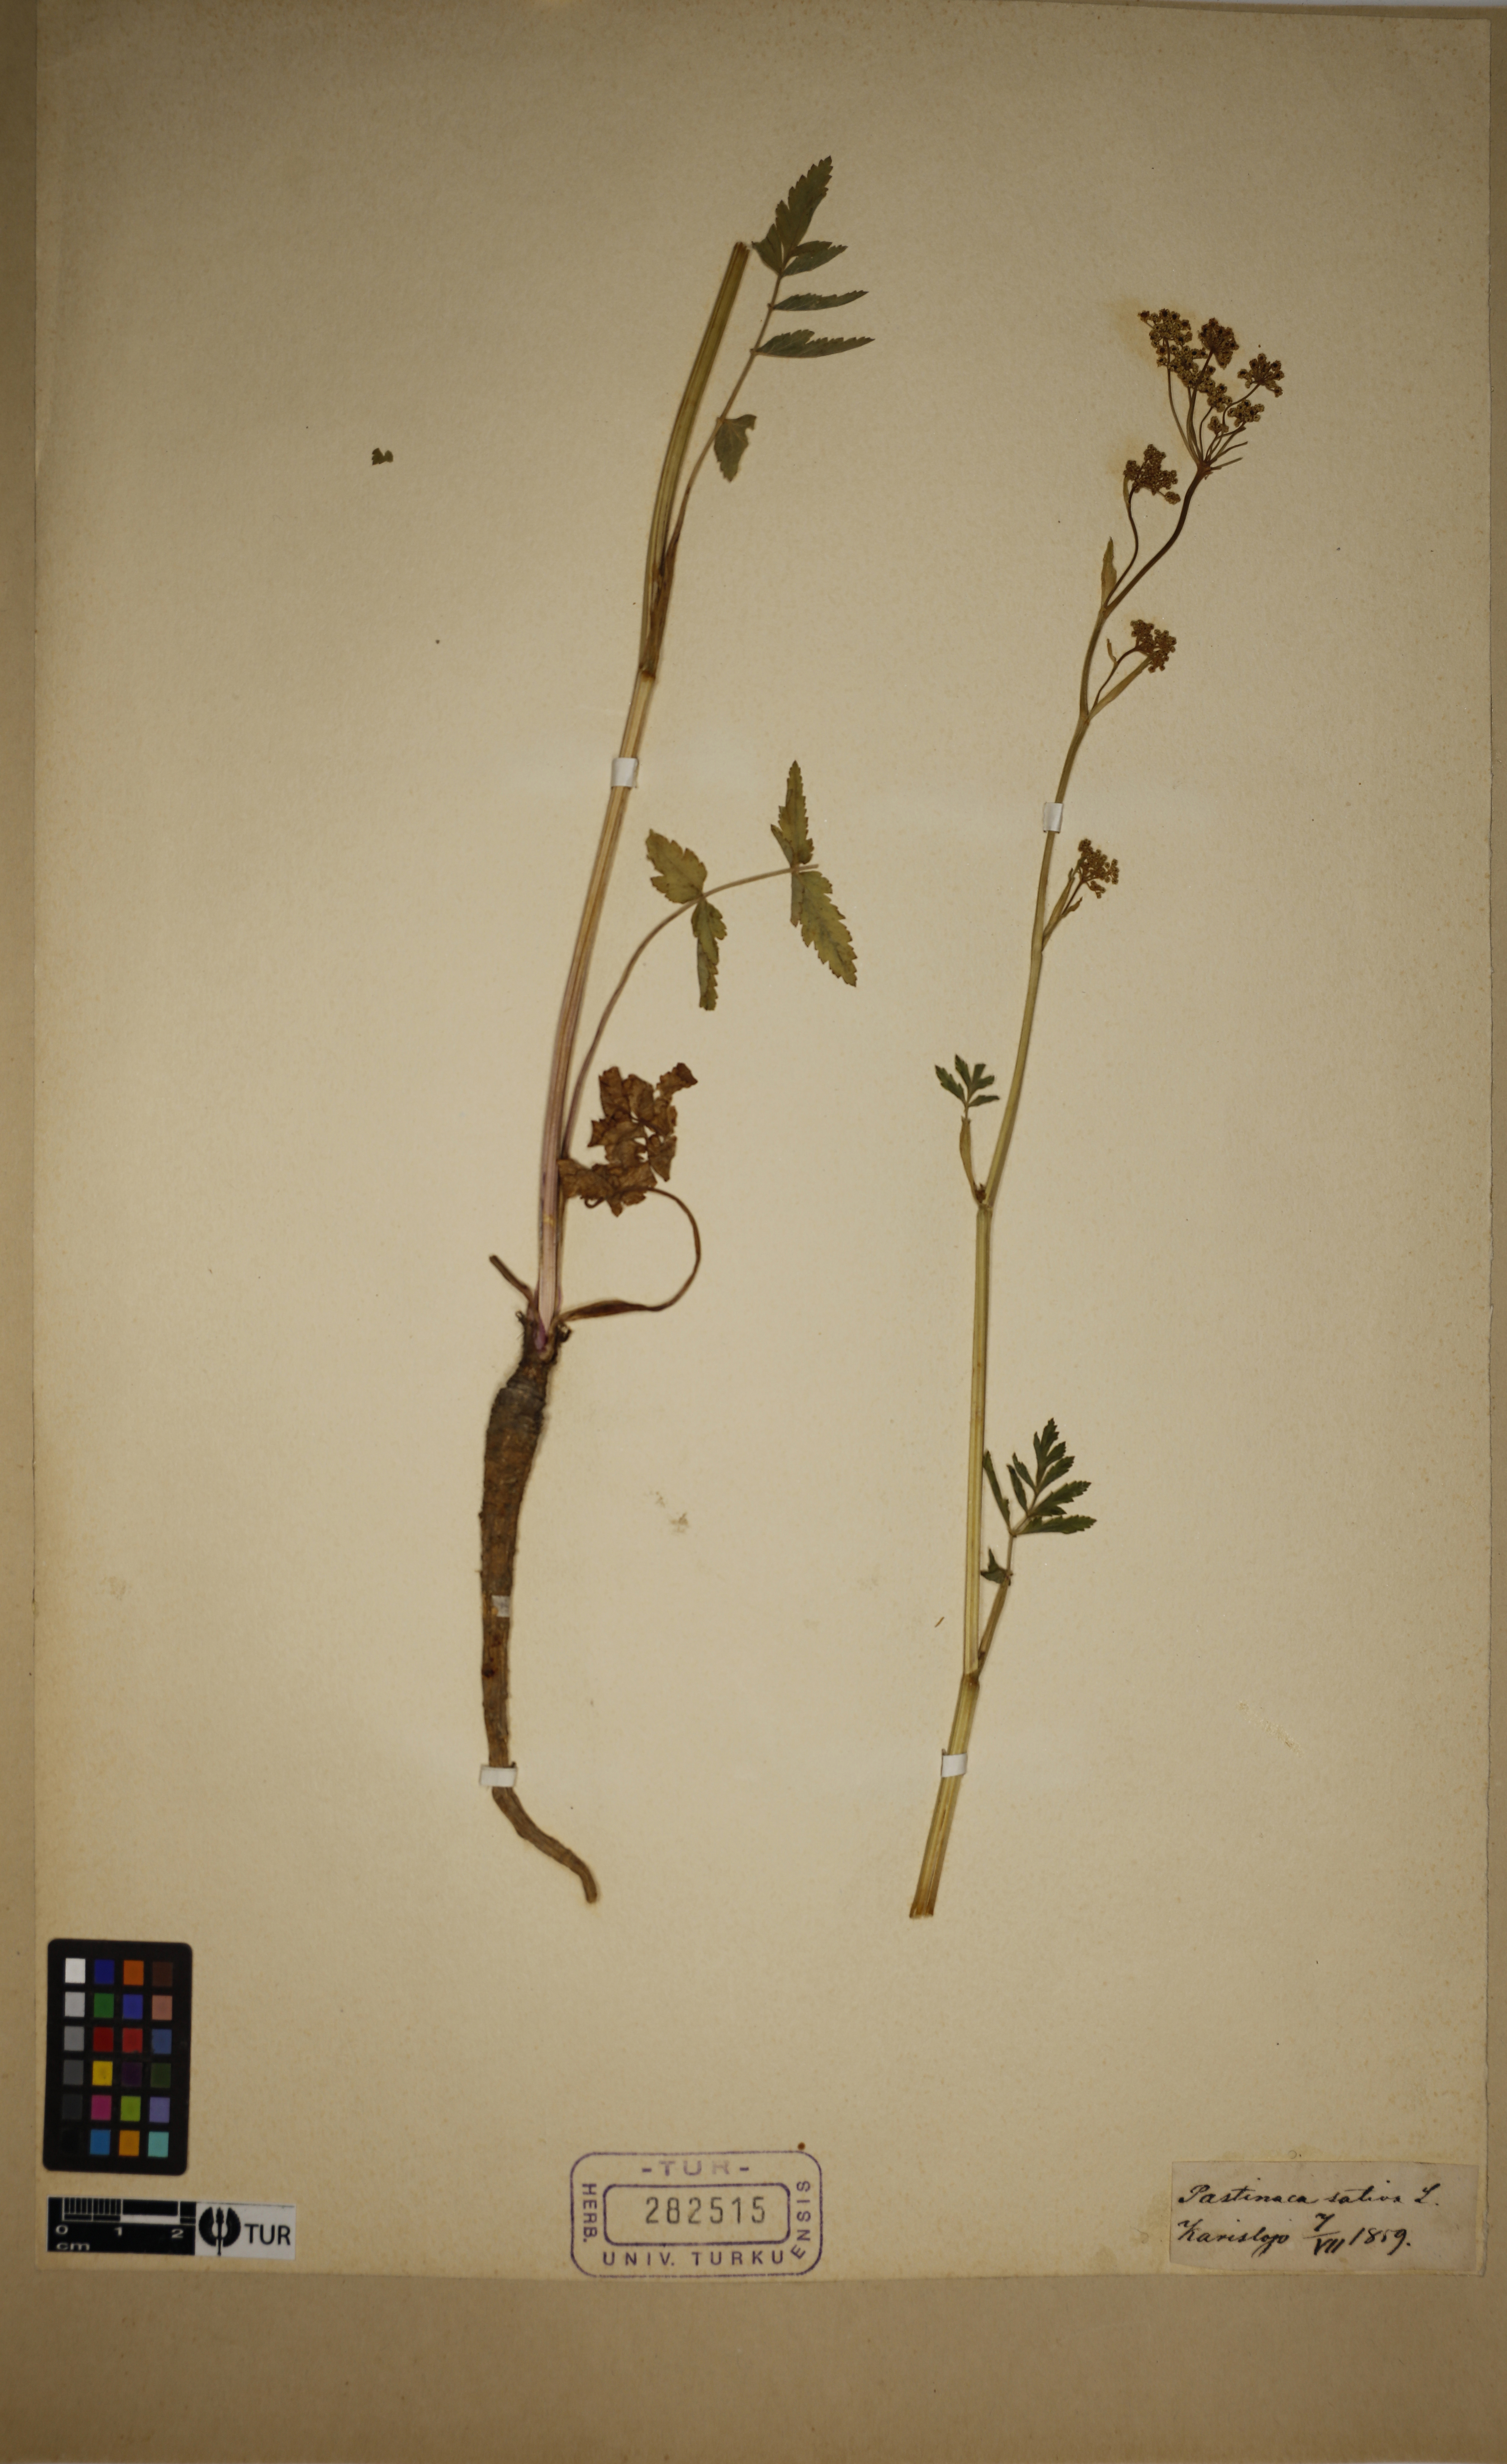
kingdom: Plantae
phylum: Tracheophyta
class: Magnoliopsida
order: Apiales
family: Apiaceae
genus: Pastinaca
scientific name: Pastinaca sativa
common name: Wild parsnip
